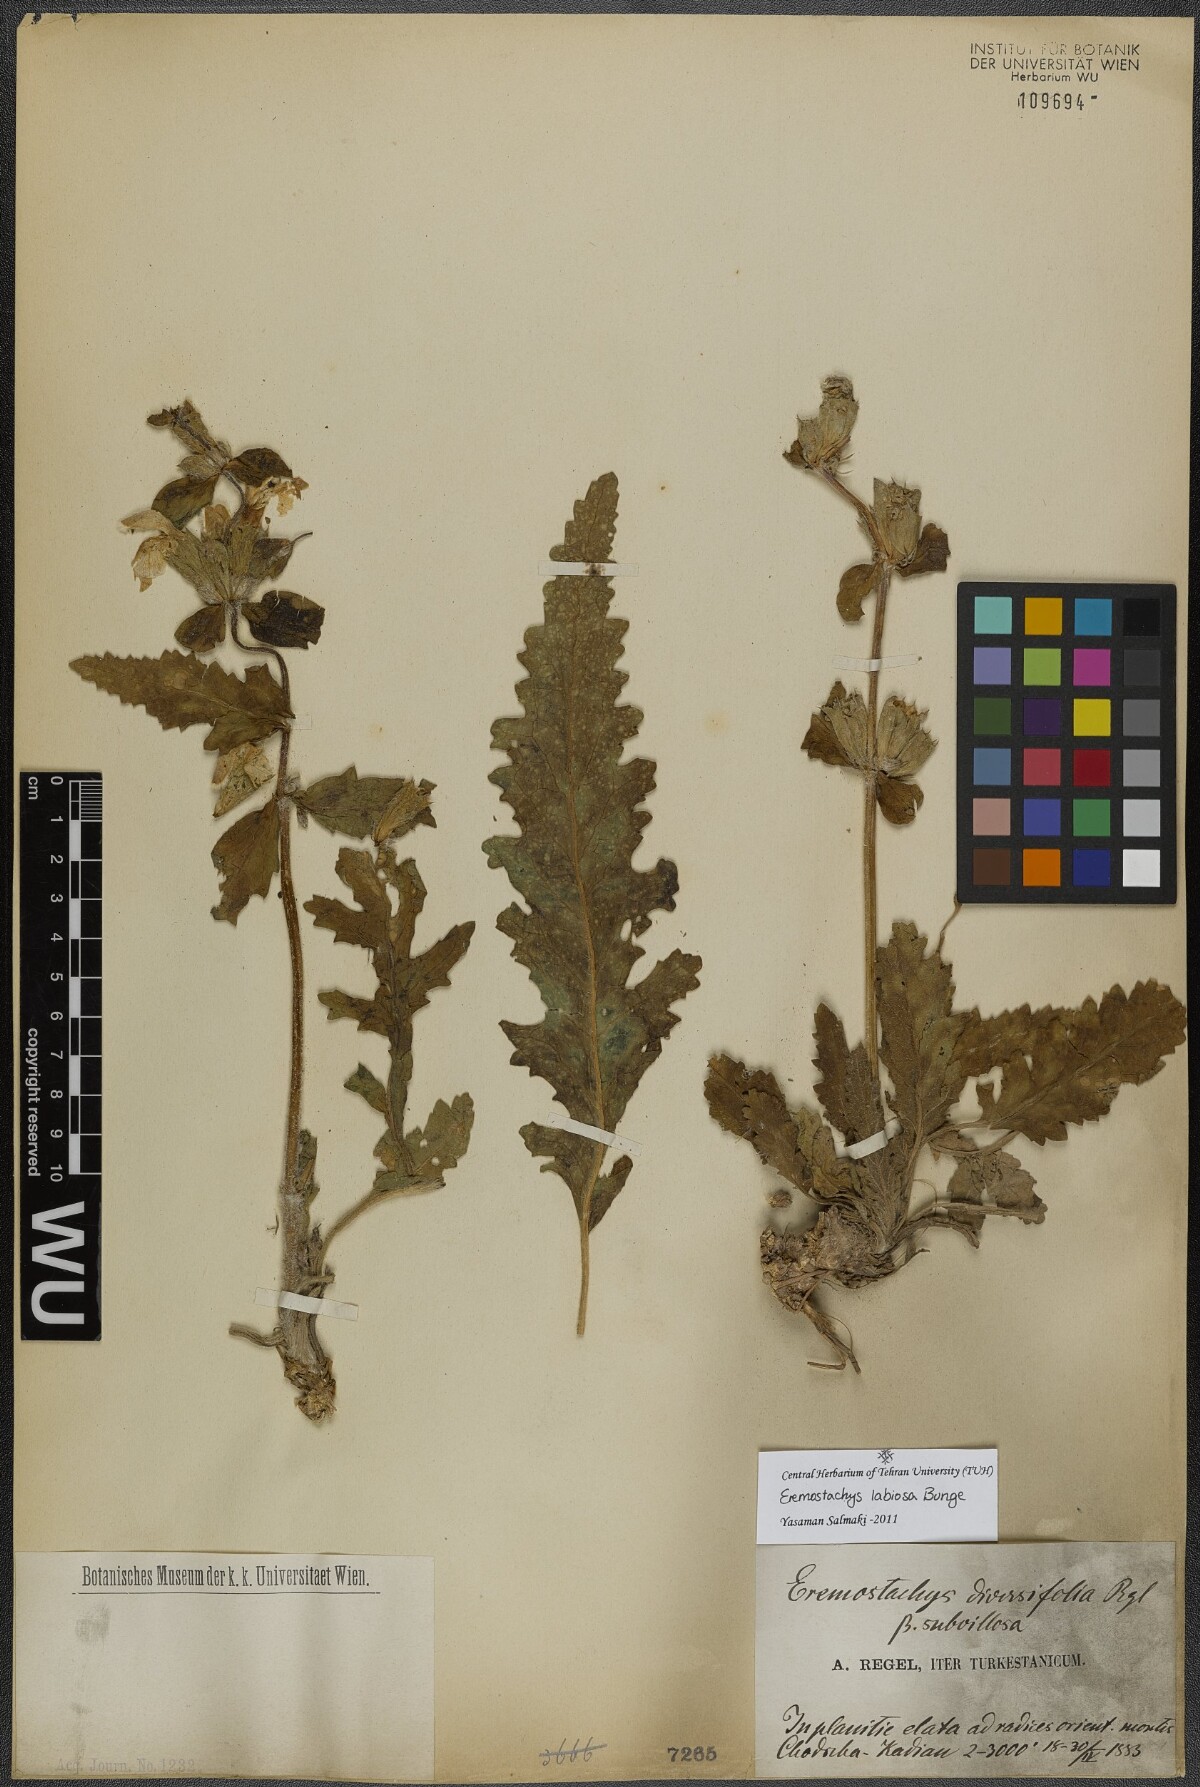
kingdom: Plantae
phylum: Tracheophyta
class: Magnoliopsida
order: Lamiales
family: Lamiaceae
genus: Phlomoides
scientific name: Phlomoides labiosa
